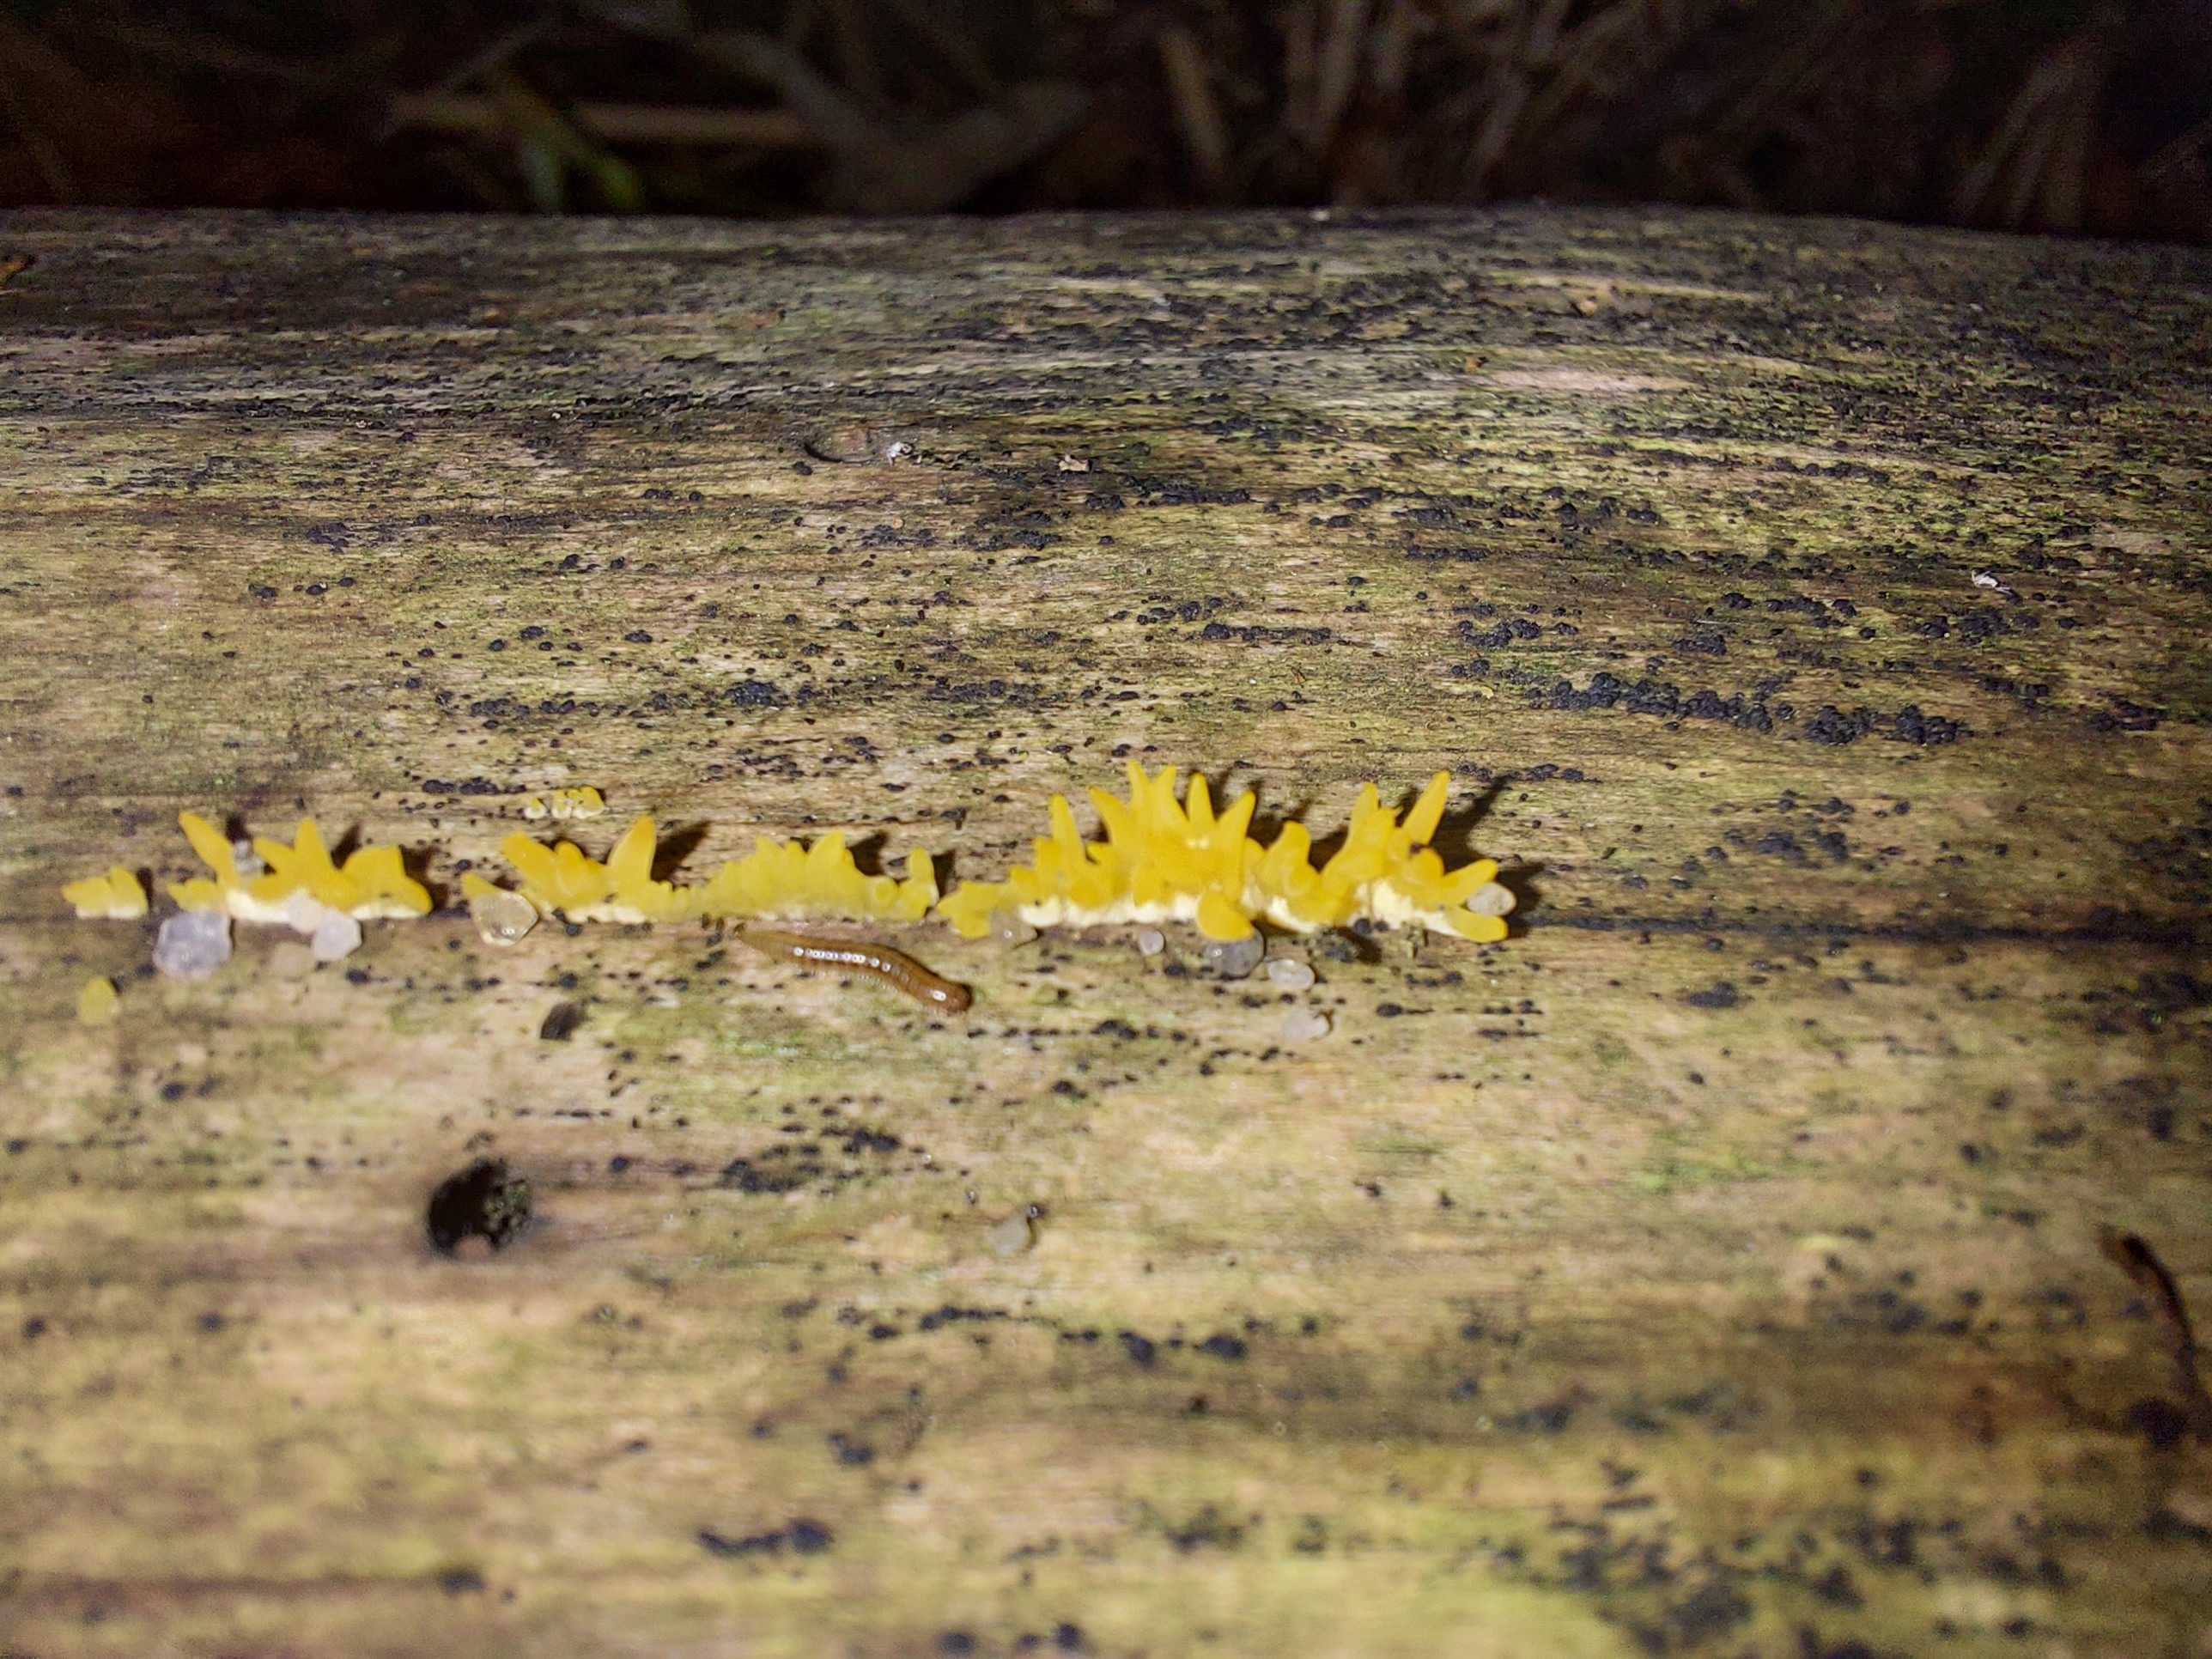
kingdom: Fungi
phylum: Basidiomycota
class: Dacrymycetes
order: Dacrymycetales
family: Dacrymycetaceae
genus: Calocera
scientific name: Calocera cornea
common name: liden guldgaffel
